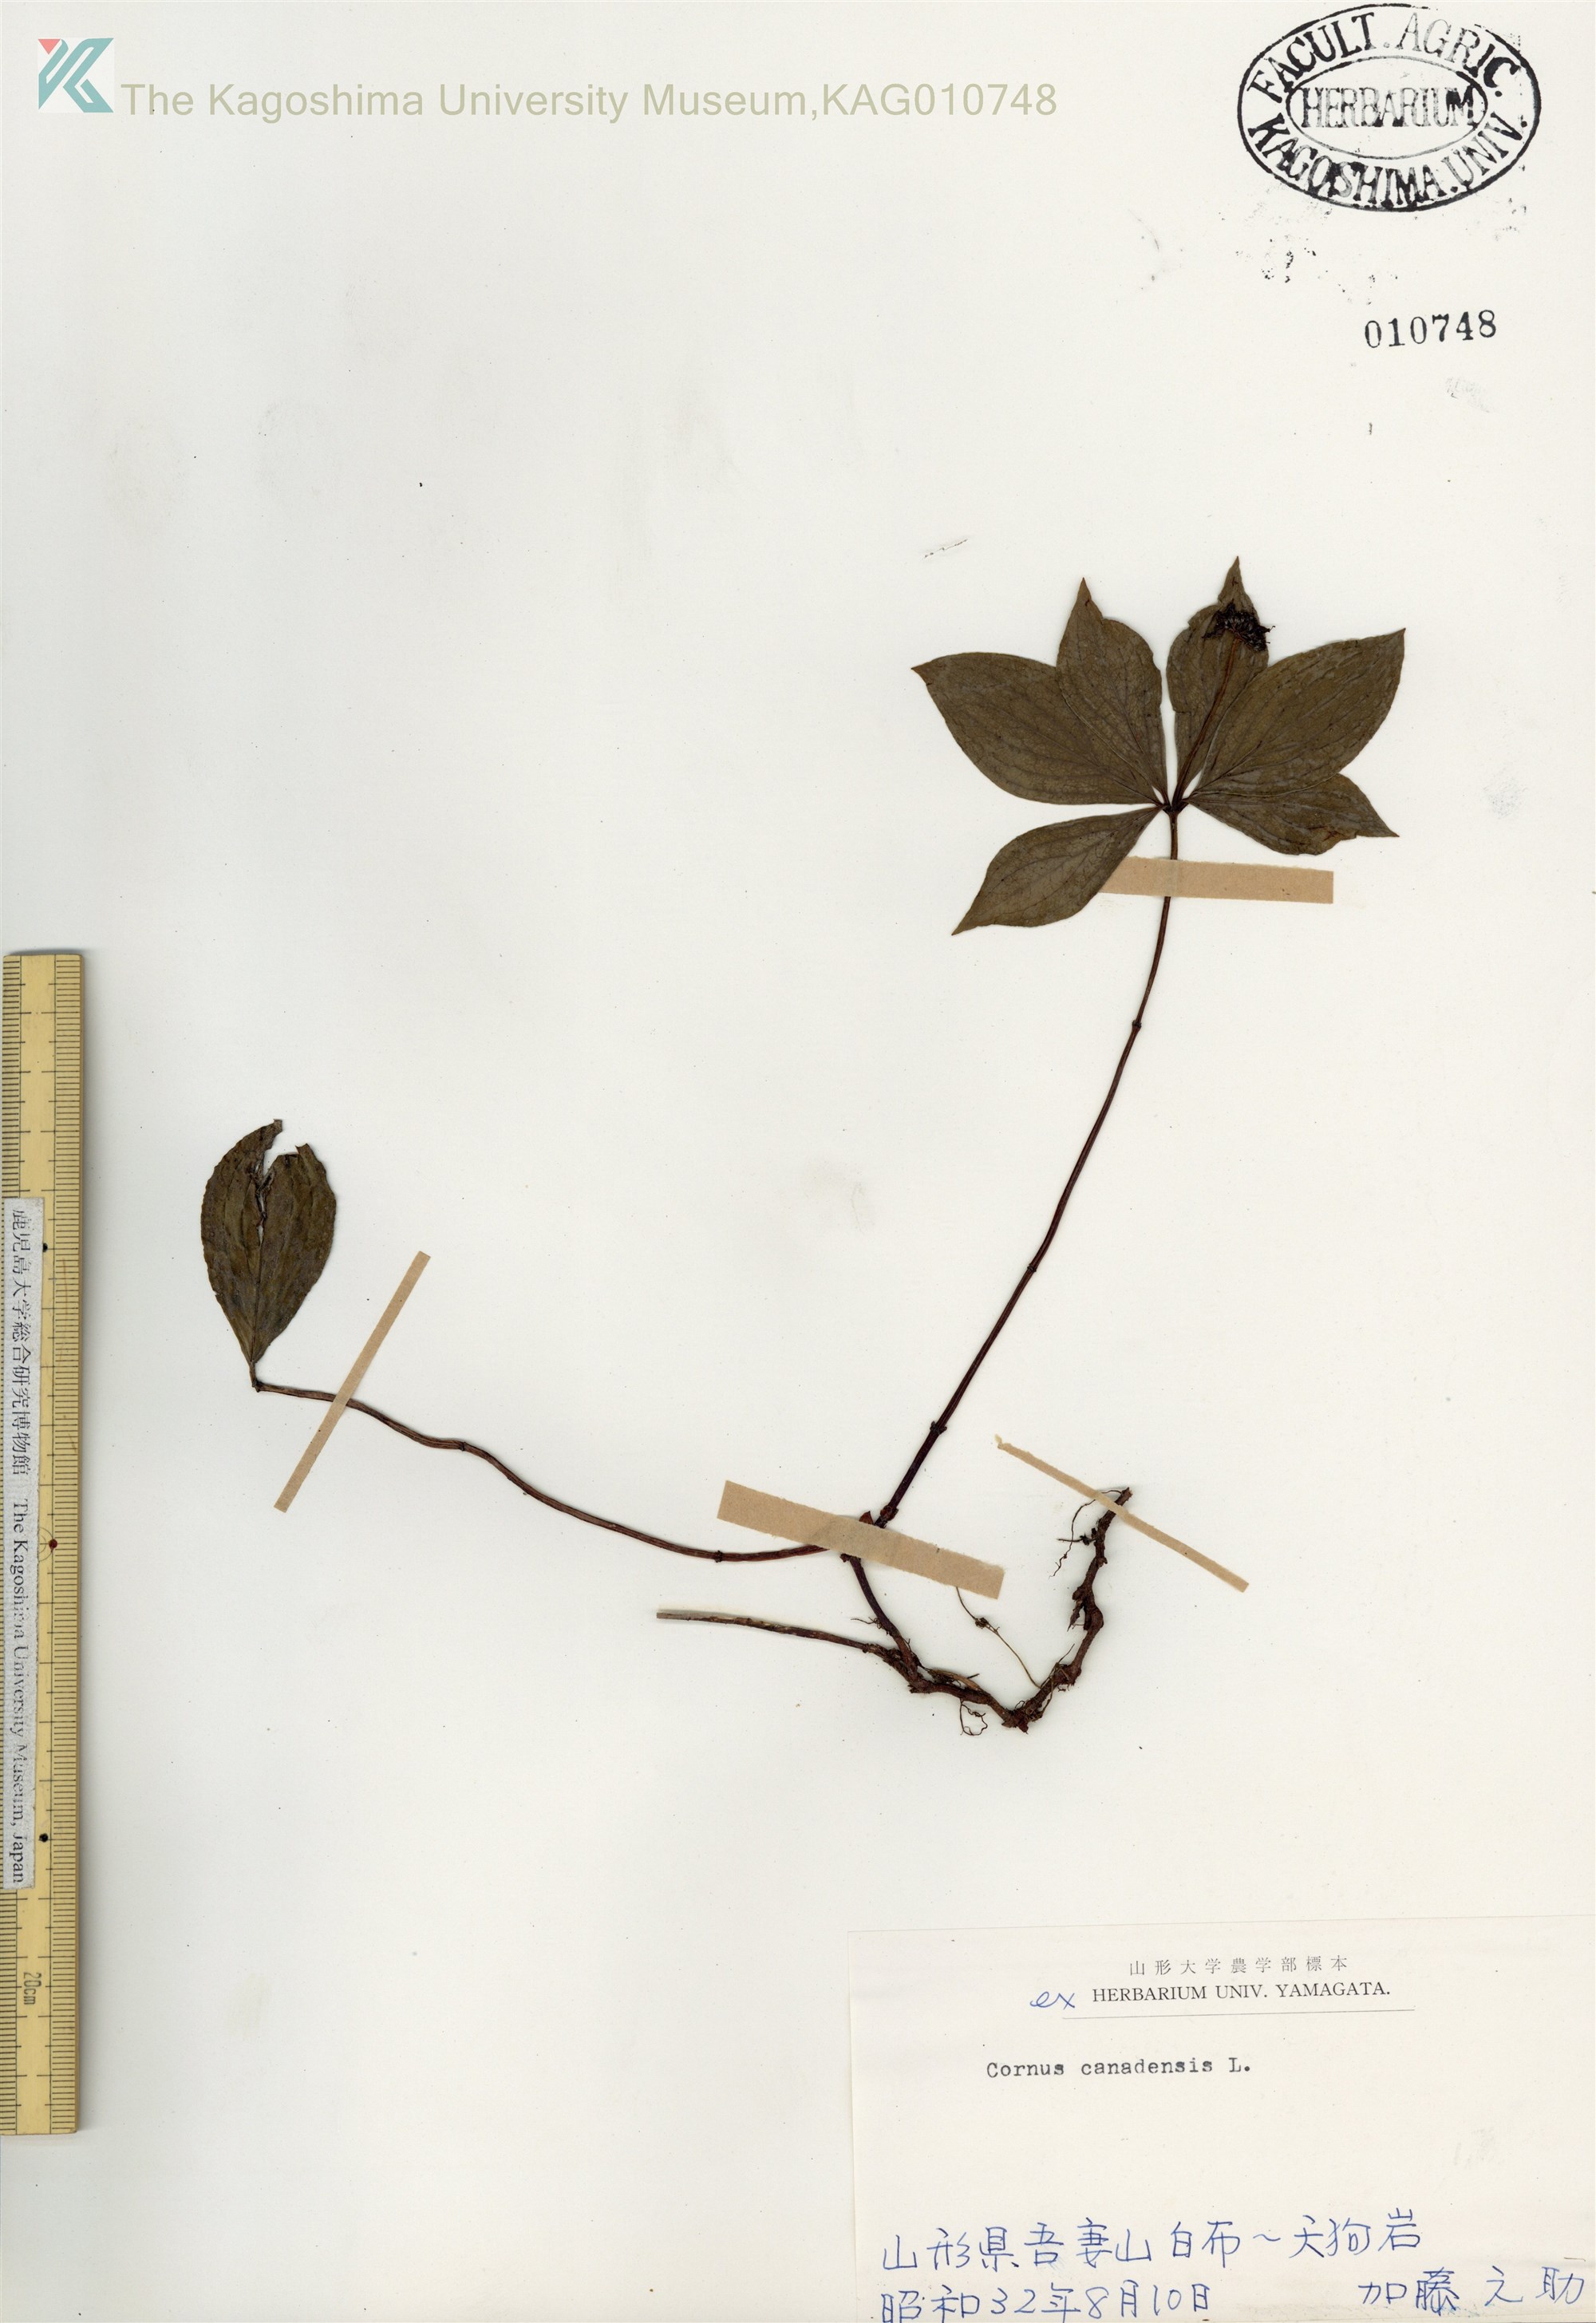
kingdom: Plantae
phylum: Tracheophyta
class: Magnoliopsida
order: Cornales
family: Cornaceae
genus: Cornus
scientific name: Cornus canadensis
